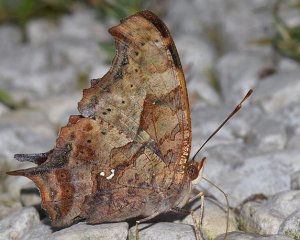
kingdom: Animalia
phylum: Arthropoda
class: Insecta
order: Lepidoptera
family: Nymphalidae
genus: Polygonia
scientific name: Polygonia interrogationis
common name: Question Mark
